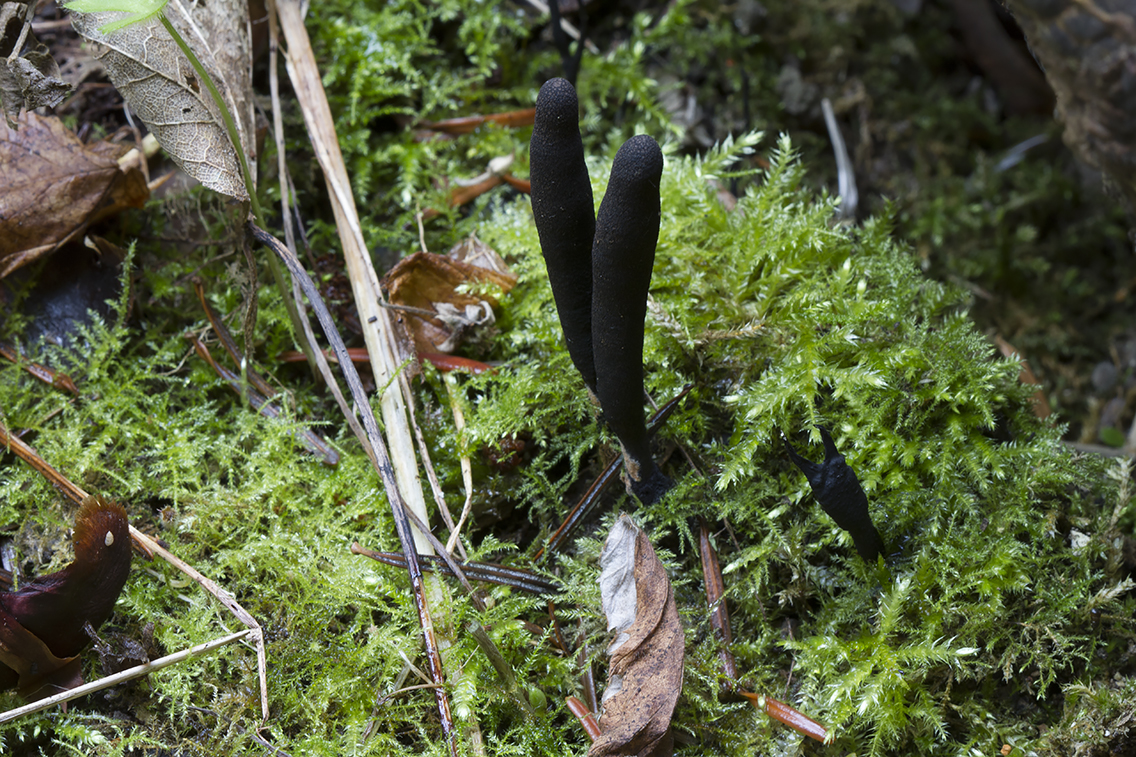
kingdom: Fungi
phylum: Ascomycota
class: Sordariomycetes
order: Xylariales
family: Xylariaceae
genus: Xylaria
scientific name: Xylaria longipes
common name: slank stødsvamp
